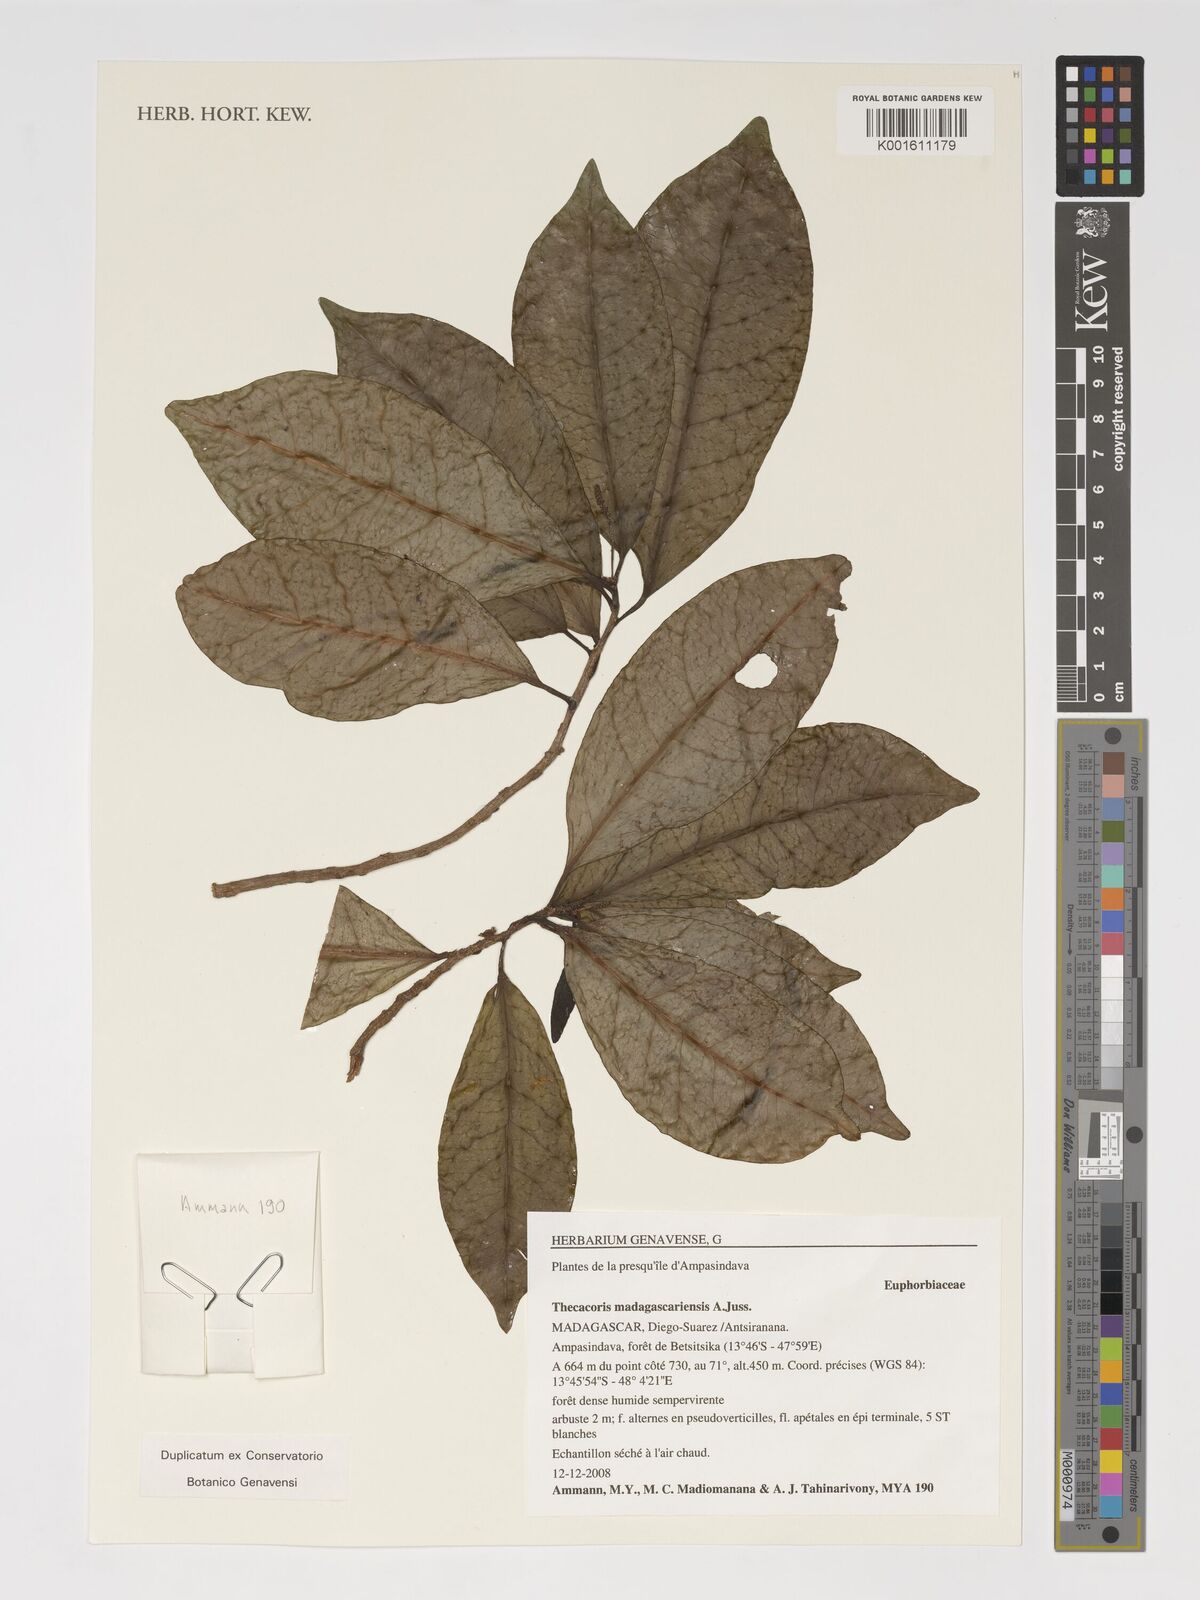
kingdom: Plantae
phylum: Tracheophyta
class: Magnoliopsida
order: Malpighiales
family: Phyllanthaceae
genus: Thecacoris
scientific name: Thecacoris madagascariensis
